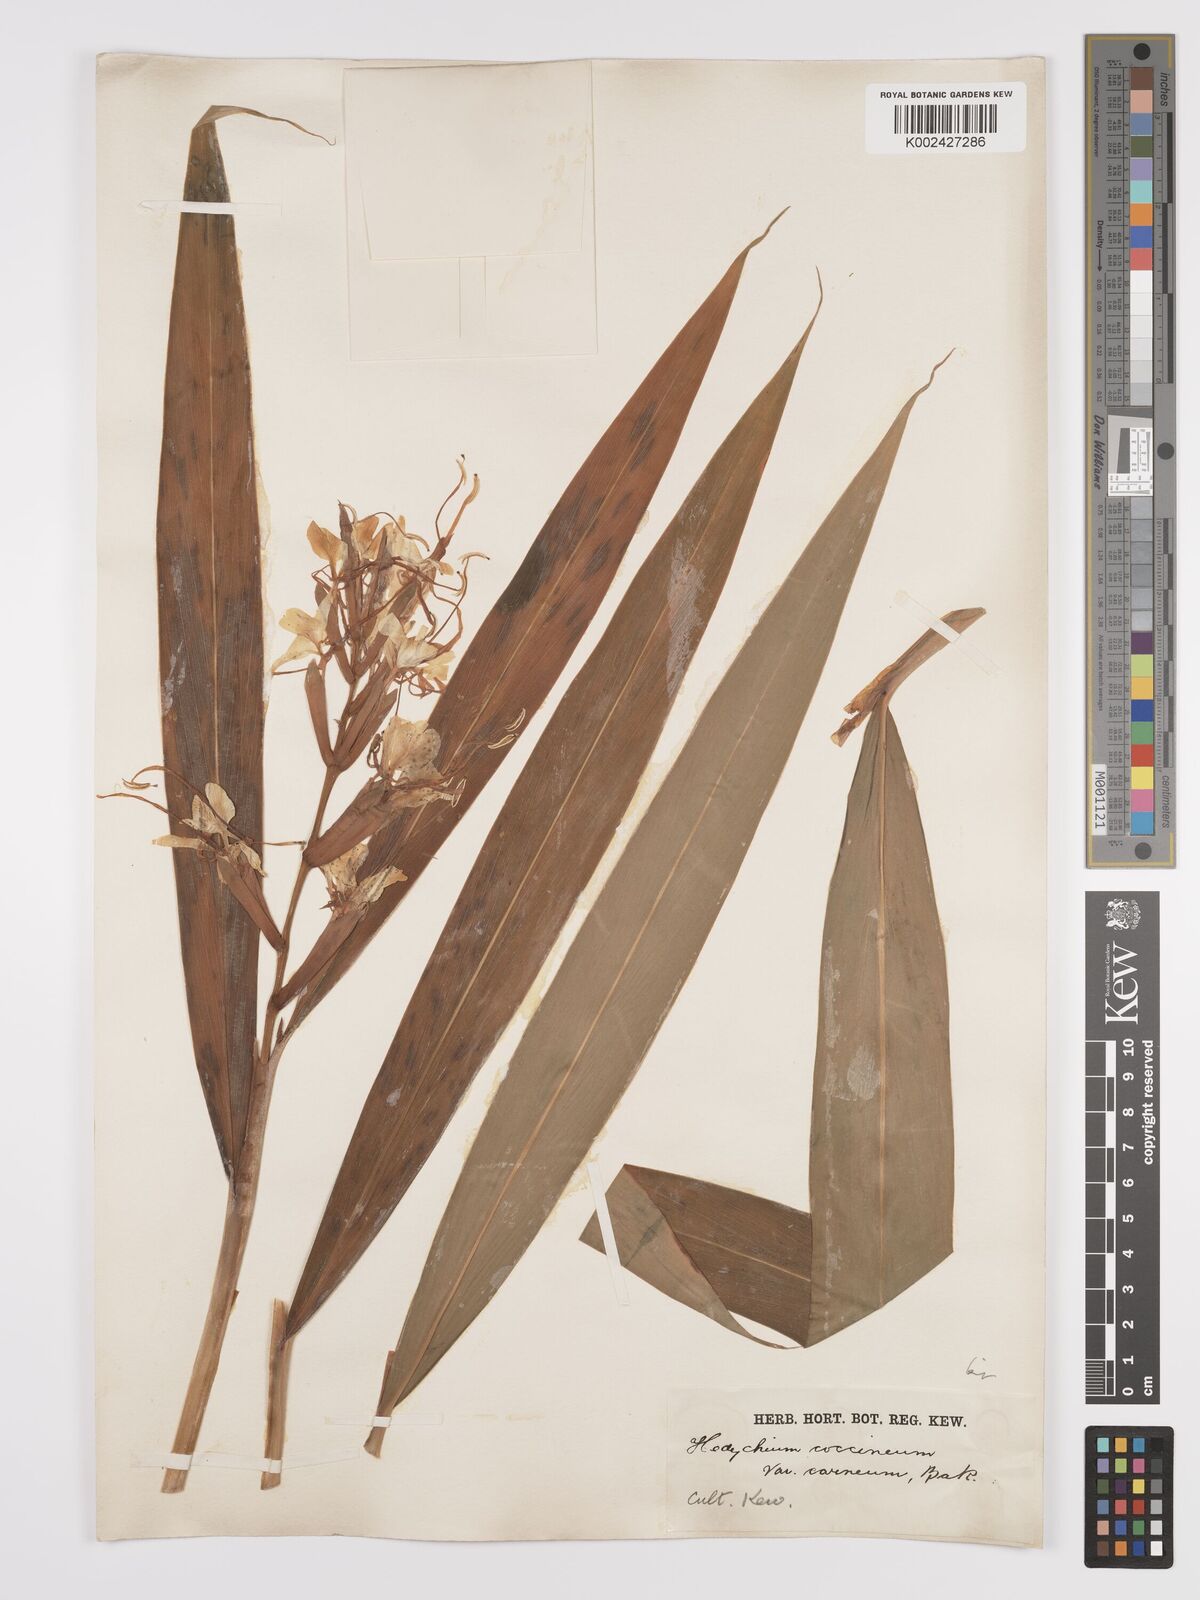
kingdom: Plantae
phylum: Tracheophyta
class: Liliopsida
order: Zingiberales
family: Zingiberaceae
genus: Hedychium
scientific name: Hedychium coccineum
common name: Red ginger-lily
